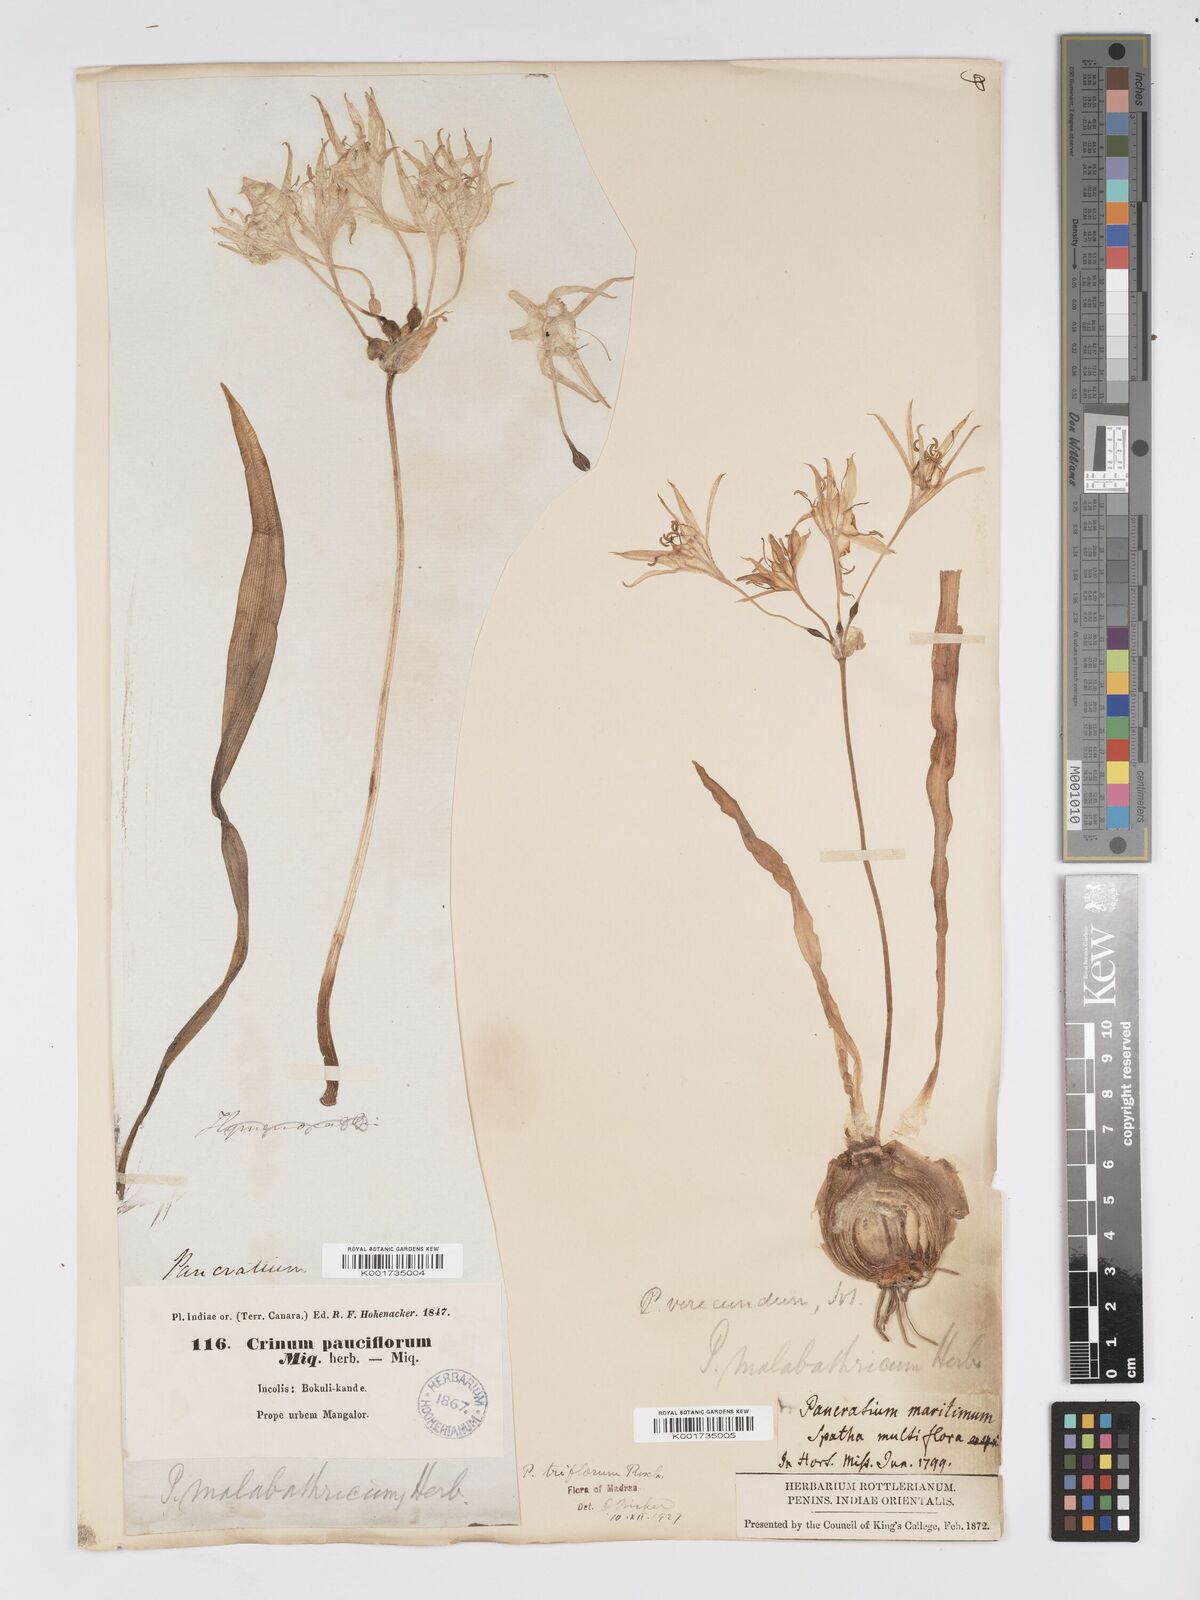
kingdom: Plantae
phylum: Tracheophyta
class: Liliopsida
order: Asparagales
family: Amaryllidaceae
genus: Pancratium
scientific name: Pancratium triflorum
